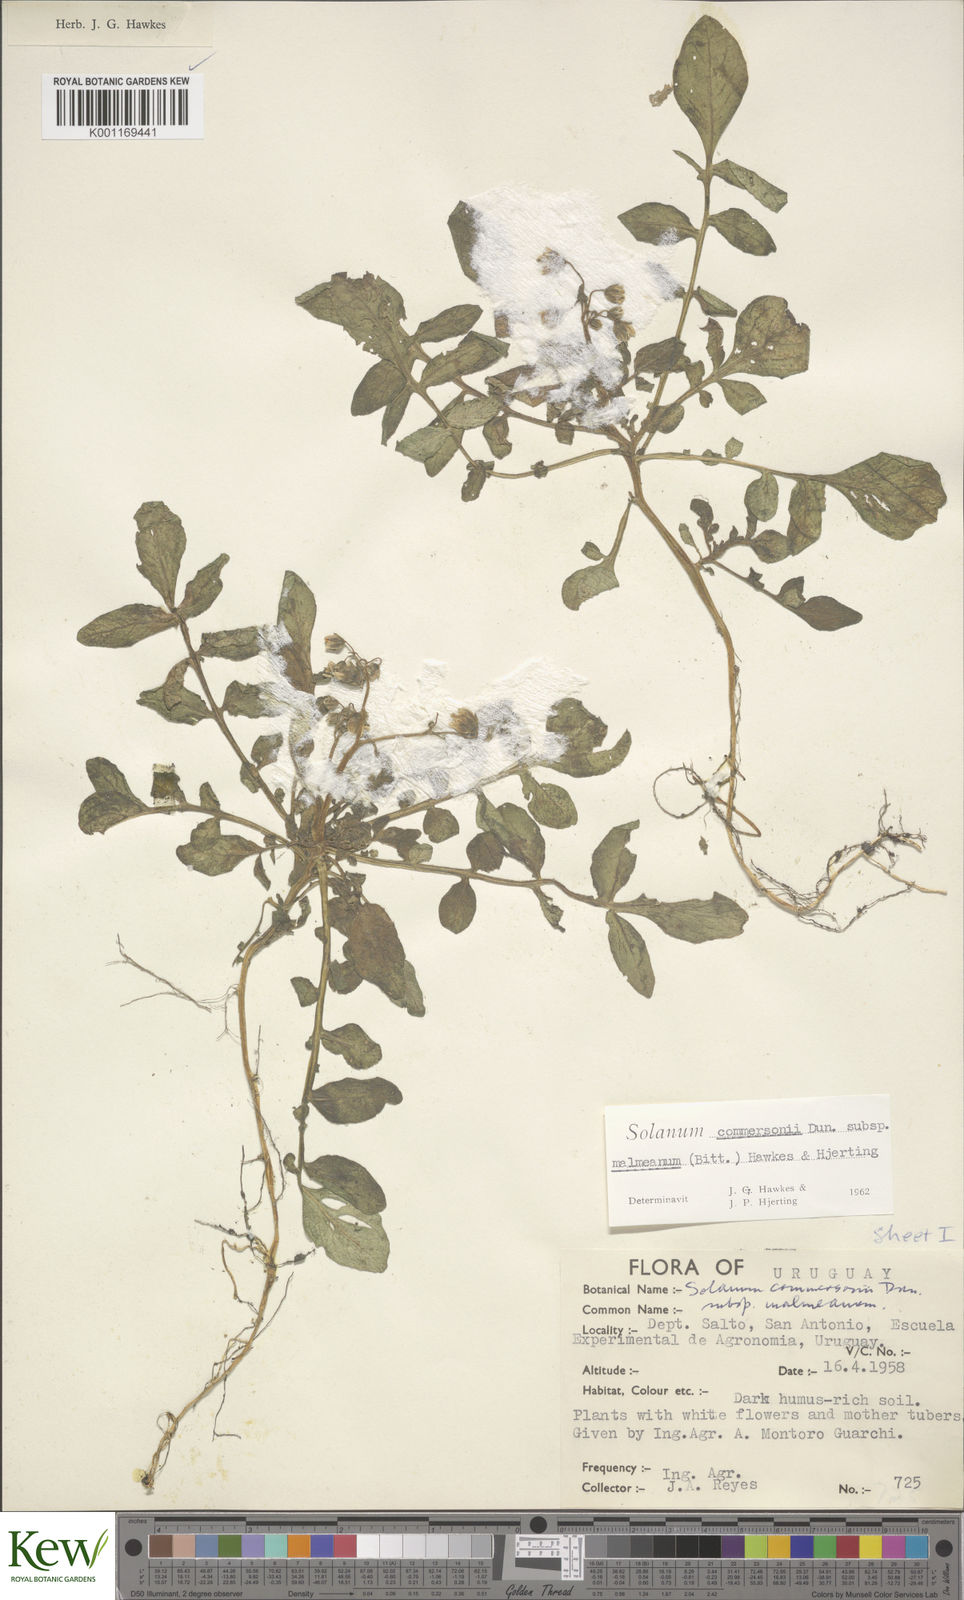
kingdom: Plantae
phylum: Tracheophyta
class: Magnoliopsida
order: Solanales
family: Solanaceae
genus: Solanum
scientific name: Solanum malmeanum
